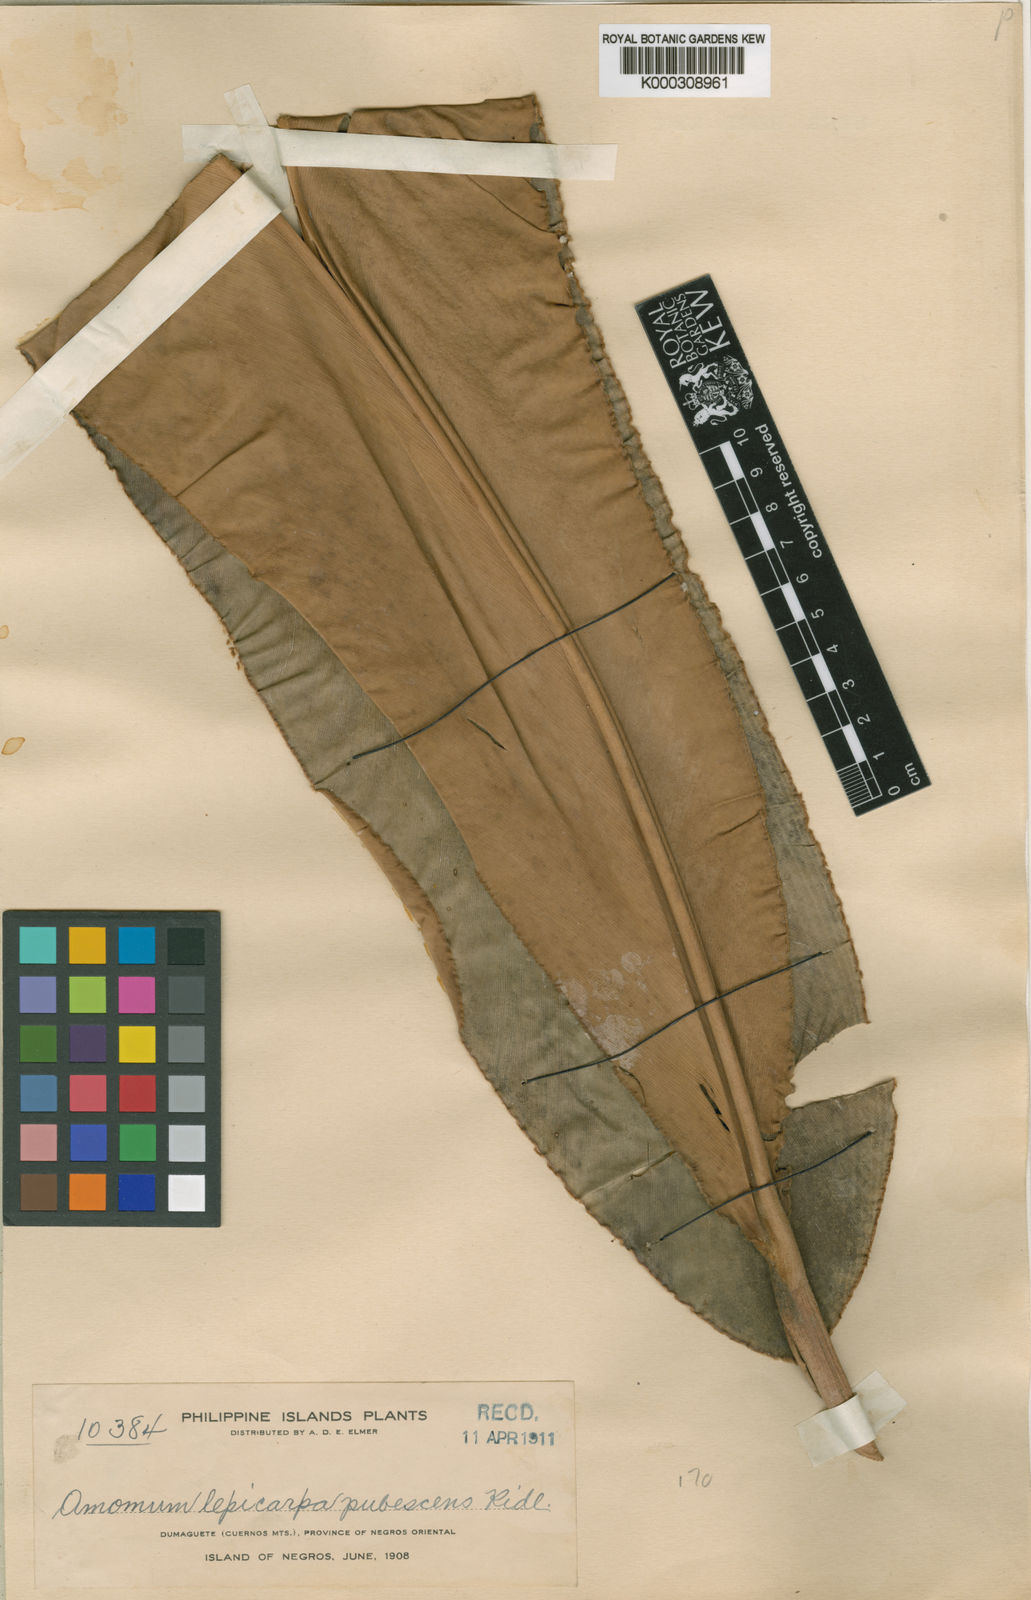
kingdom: Plantae
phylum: Tracheophyta
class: Liliopsida
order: Zingiberales
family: Zingiberaceae
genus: Etlingera
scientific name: Etlingera pilosa
